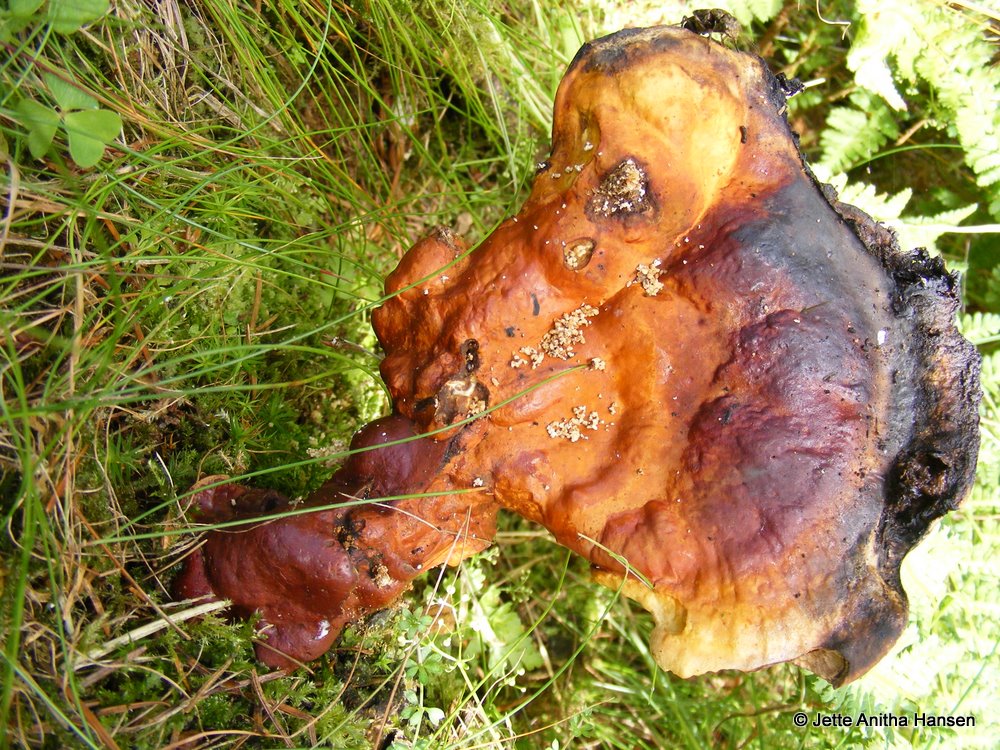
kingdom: Fungi
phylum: Basidiomycota
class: Agaricomycetes
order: Polyporales
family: Polyporaceae
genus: Ganoderma
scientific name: Ganoderma lucidum
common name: skinnende lakporesvamp
